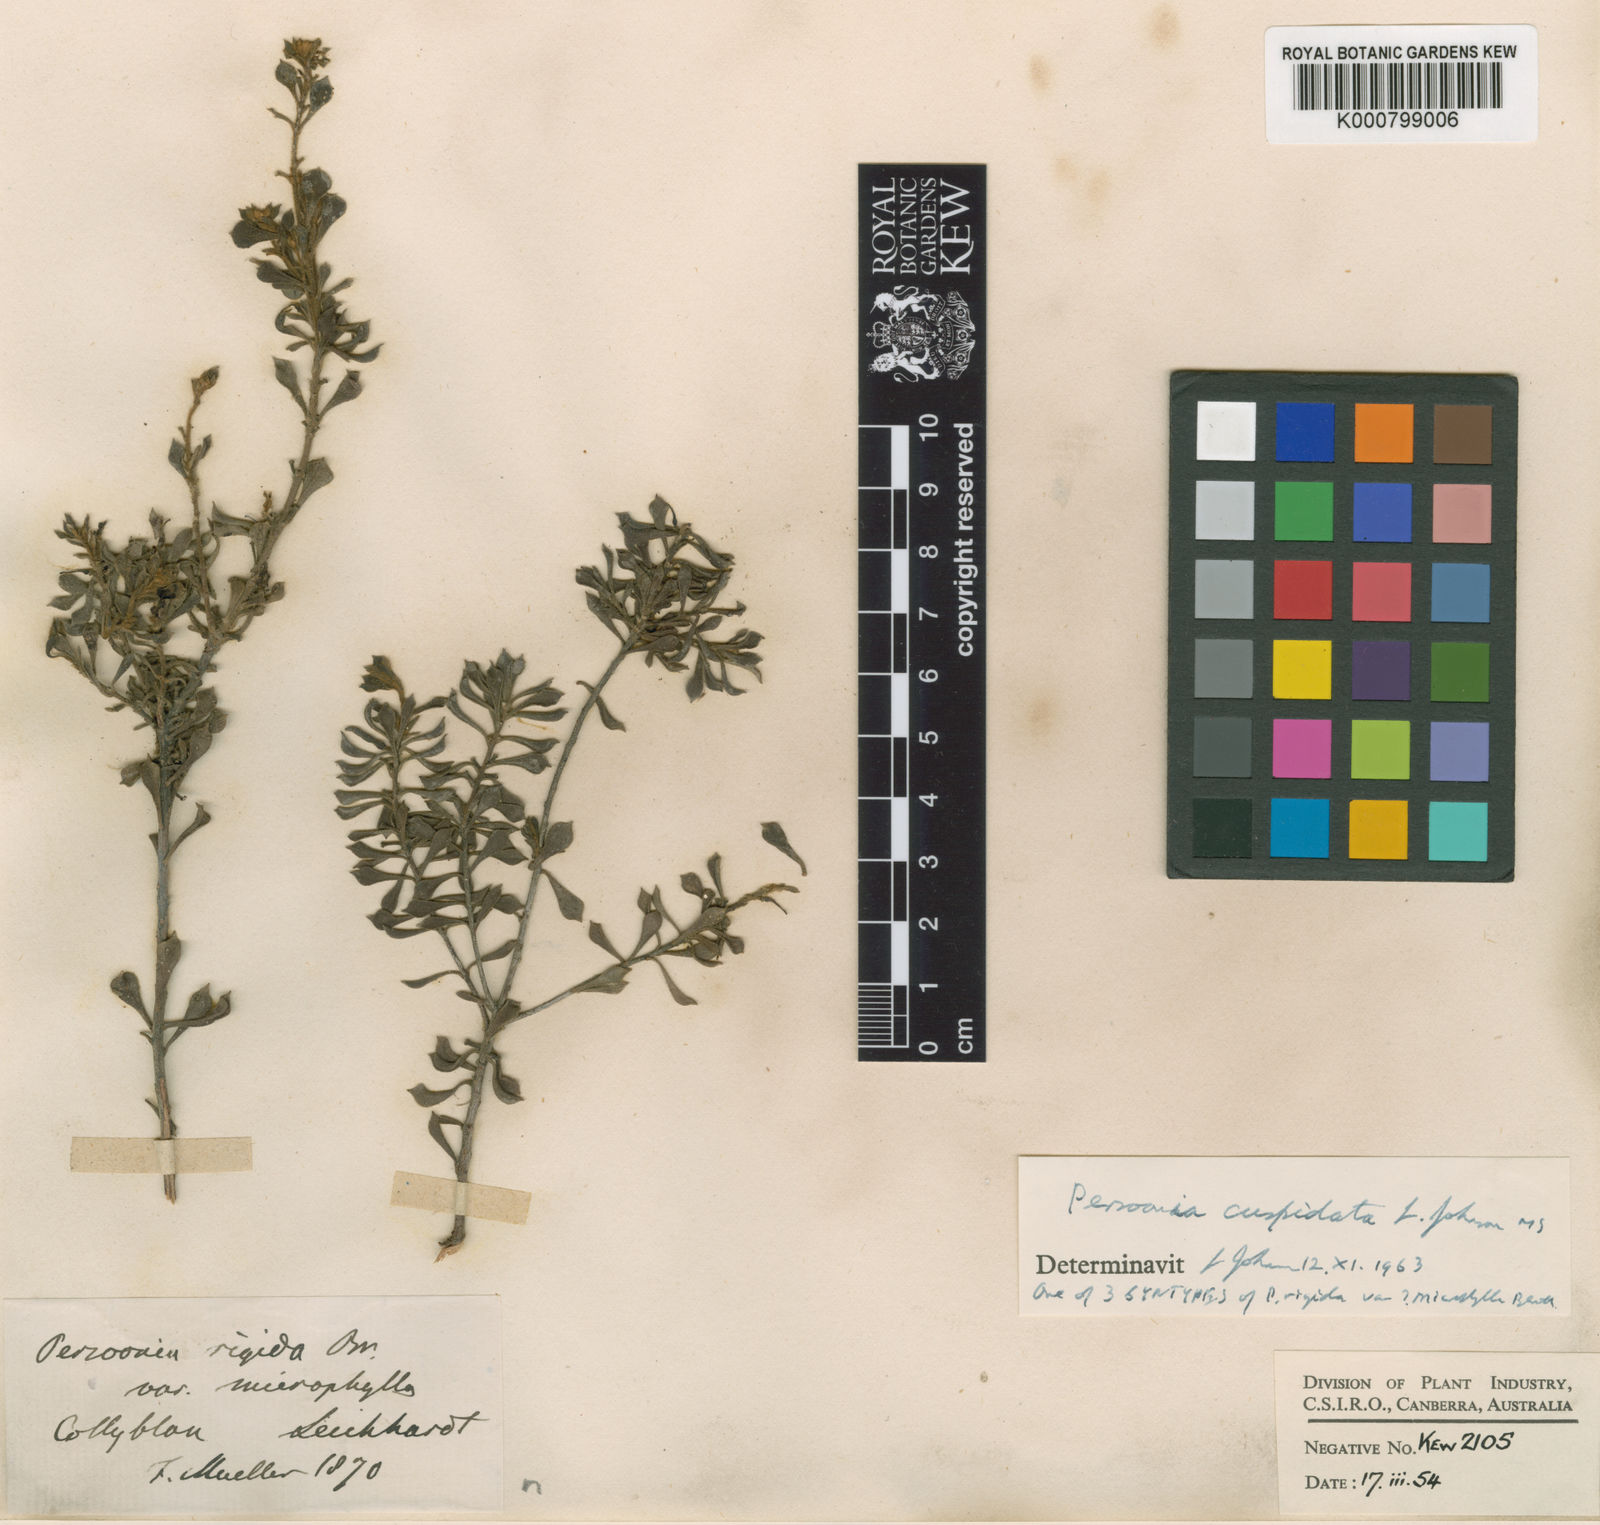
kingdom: Plantae
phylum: Tracheophyta
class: Magnoliopsida
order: Proteales
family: Proteaceae
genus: Persoonia
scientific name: Persoonia cuspidifera
